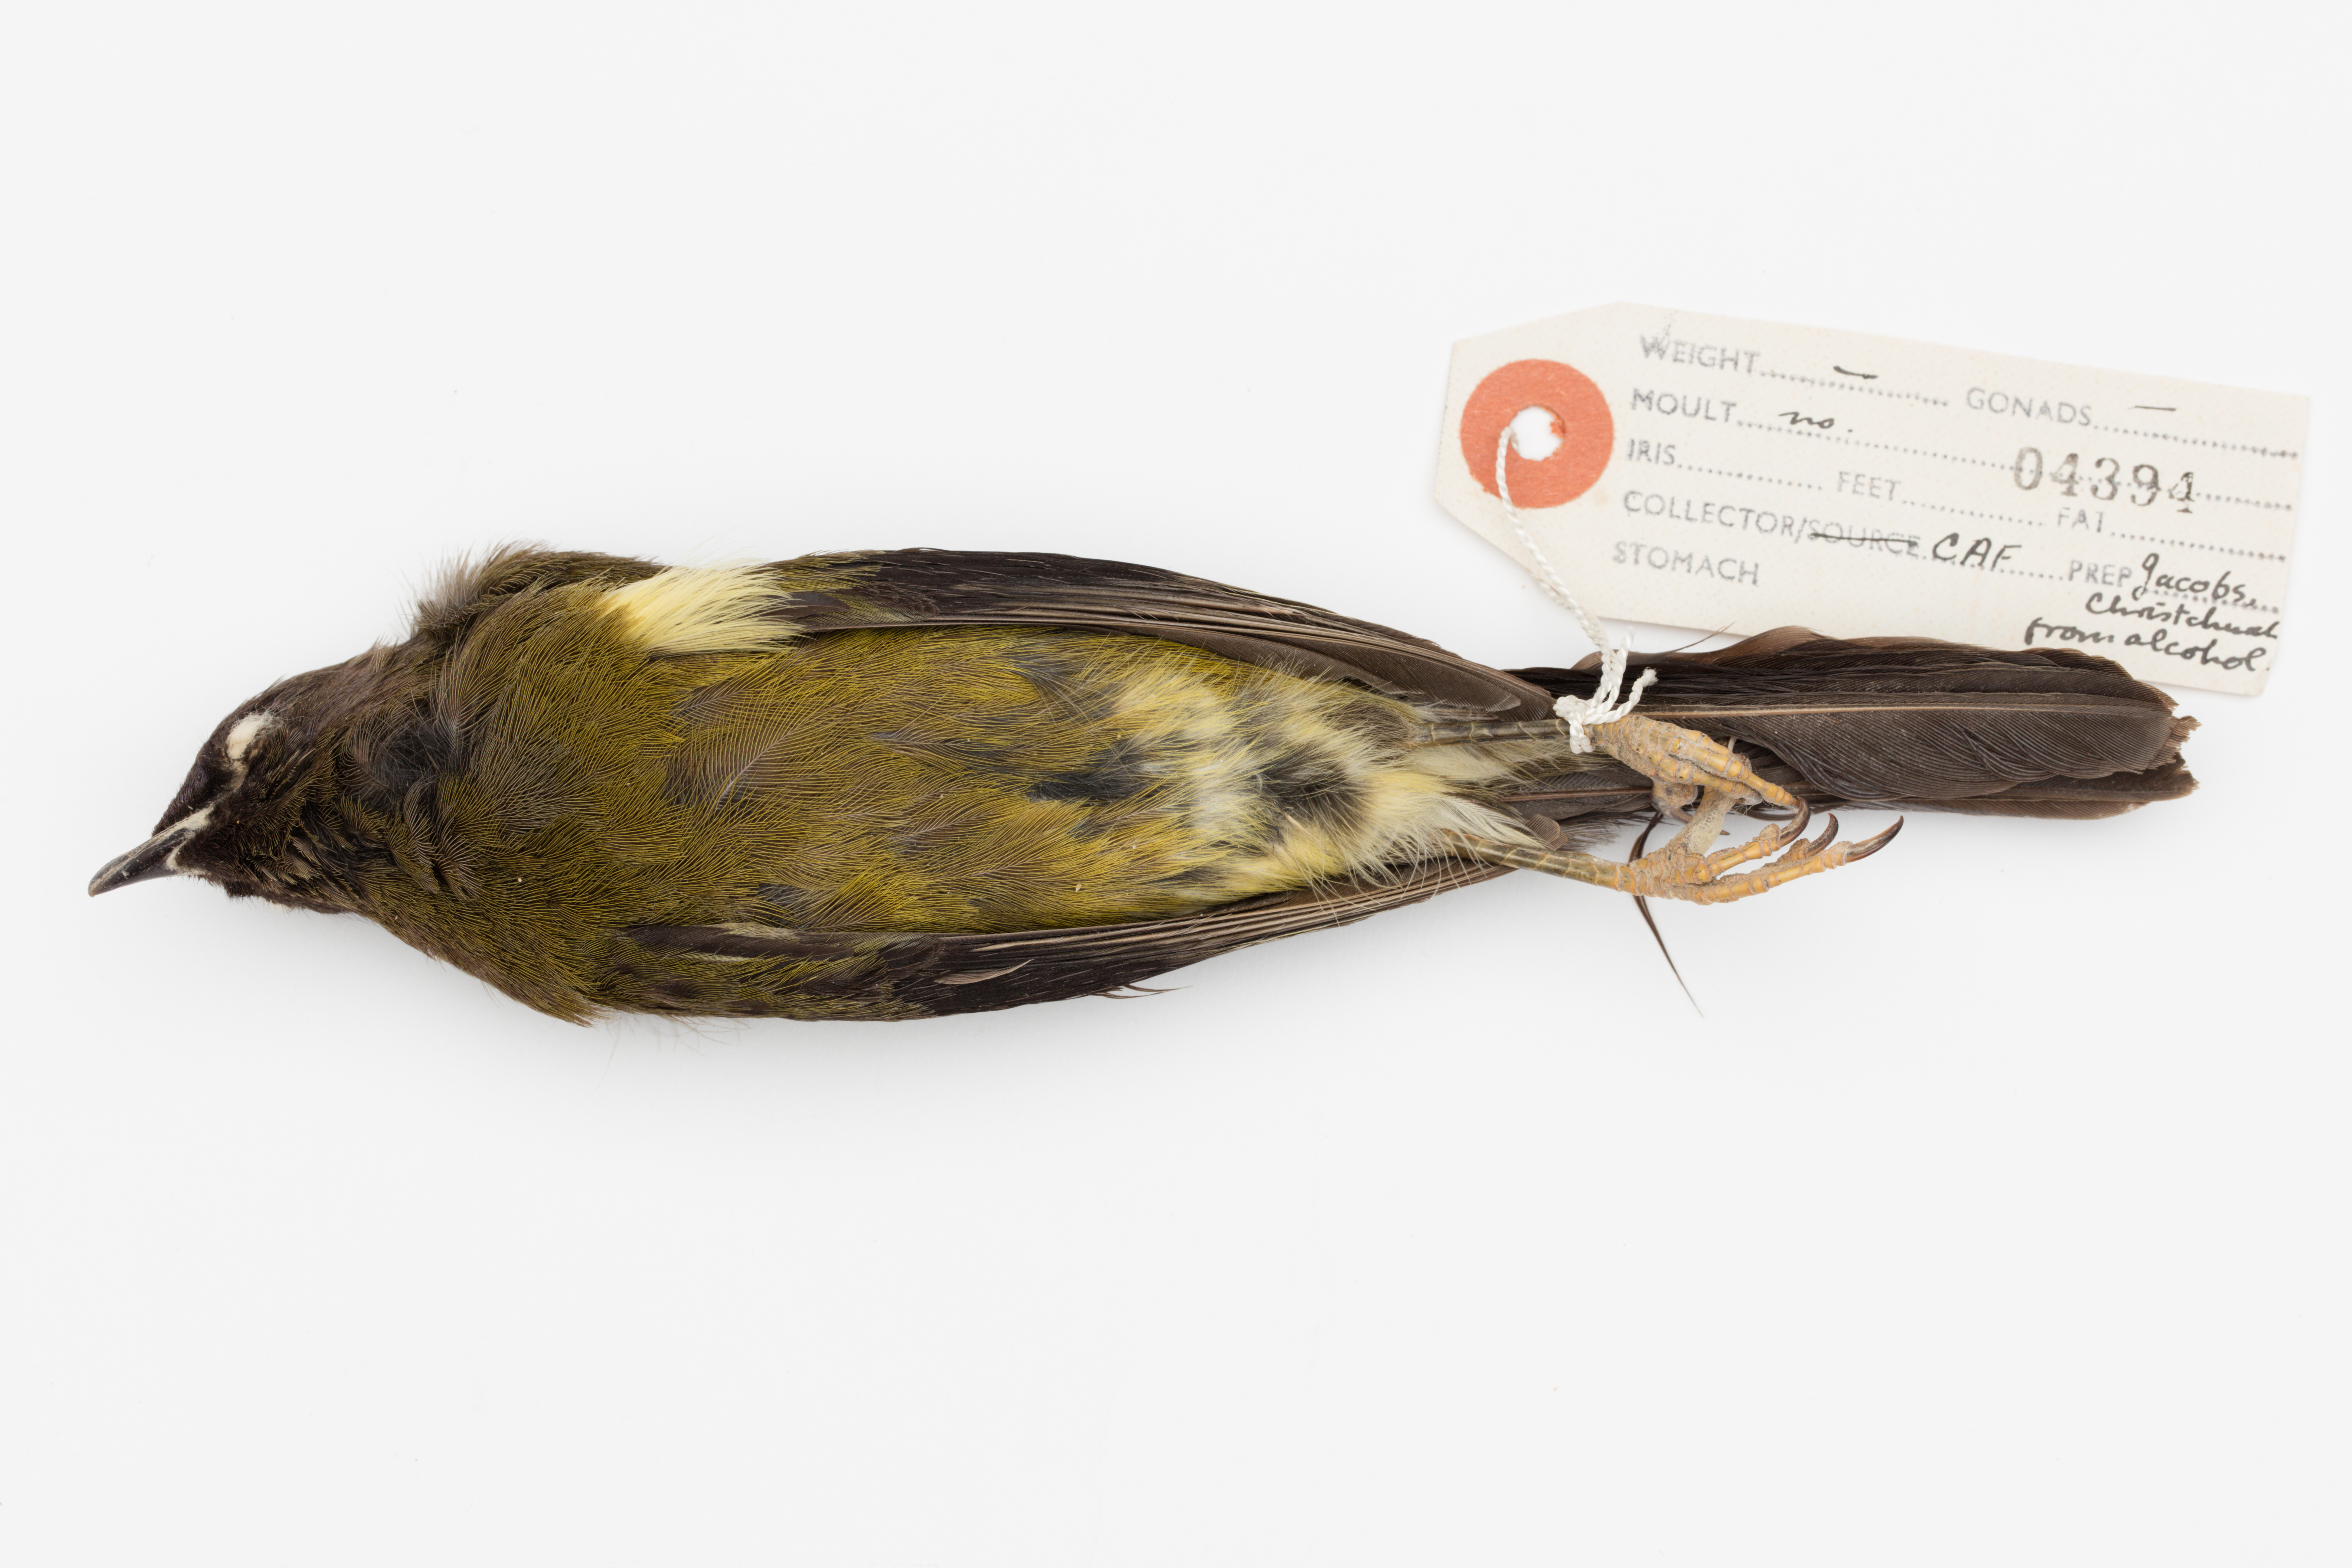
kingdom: Animalia
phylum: Chordata
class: Aves
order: Passeriformes
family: Meliphagidae
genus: Anthornis
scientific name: Anthornis melanura
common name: New zealand bellbird
